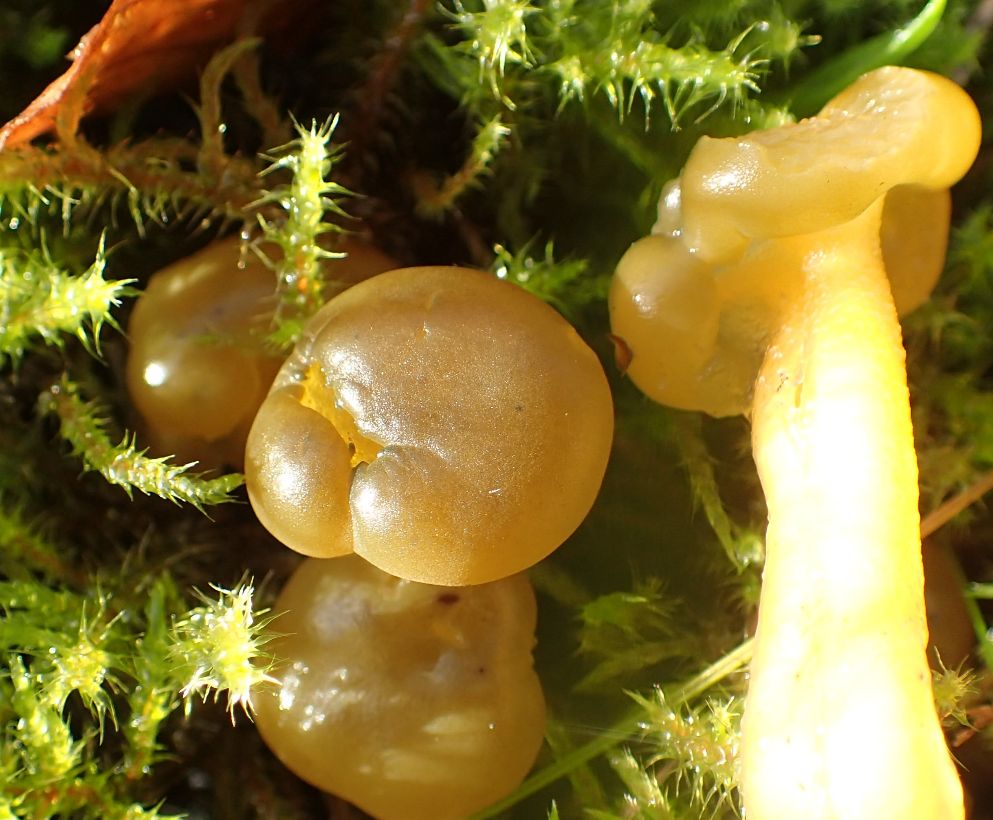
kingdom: Fungi
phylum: Ascomycota
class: Leotiomycetes
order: Leotiales
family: Leotiaceae
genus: Leotia
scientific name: Leotia lubrica
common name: ravsvamp
